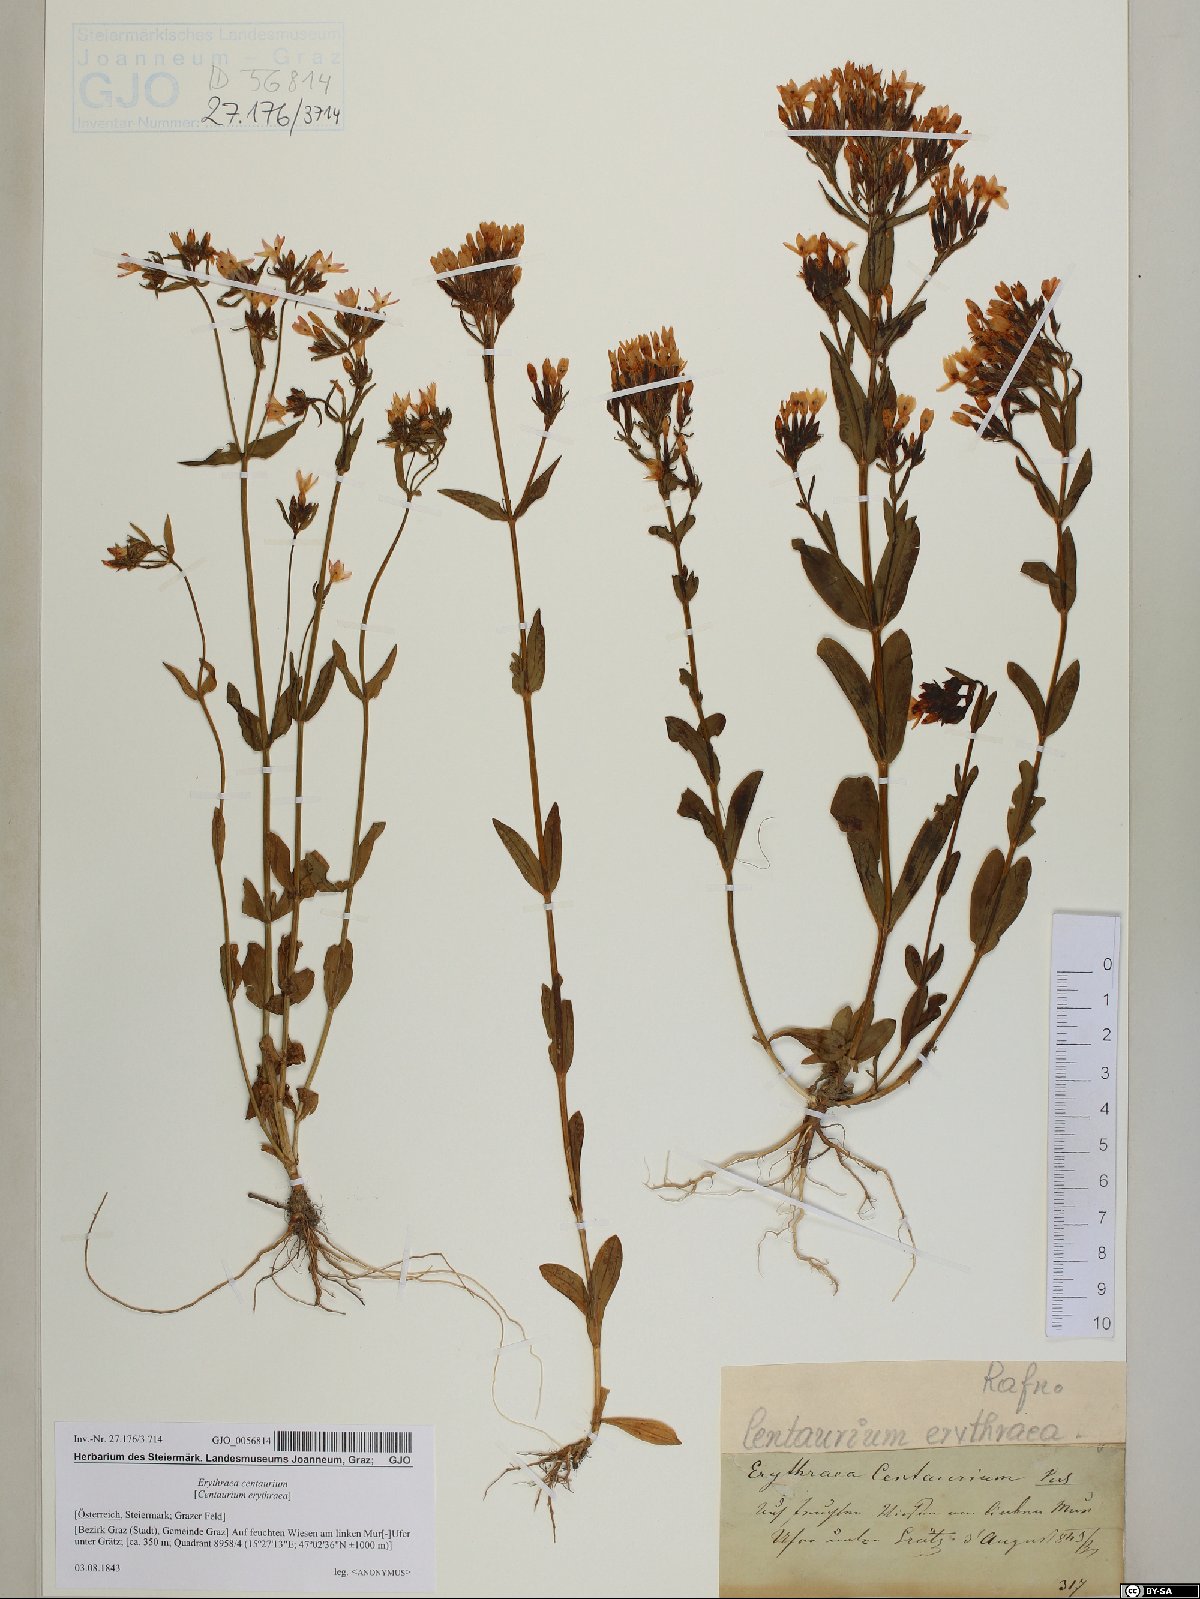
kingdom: Plantae
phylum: Tracheophyta
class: Magnoliopsida
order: Gentianales
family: Gentianaceae
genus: Centaurium
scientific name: Centaurium erythraea
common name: Common centaury
